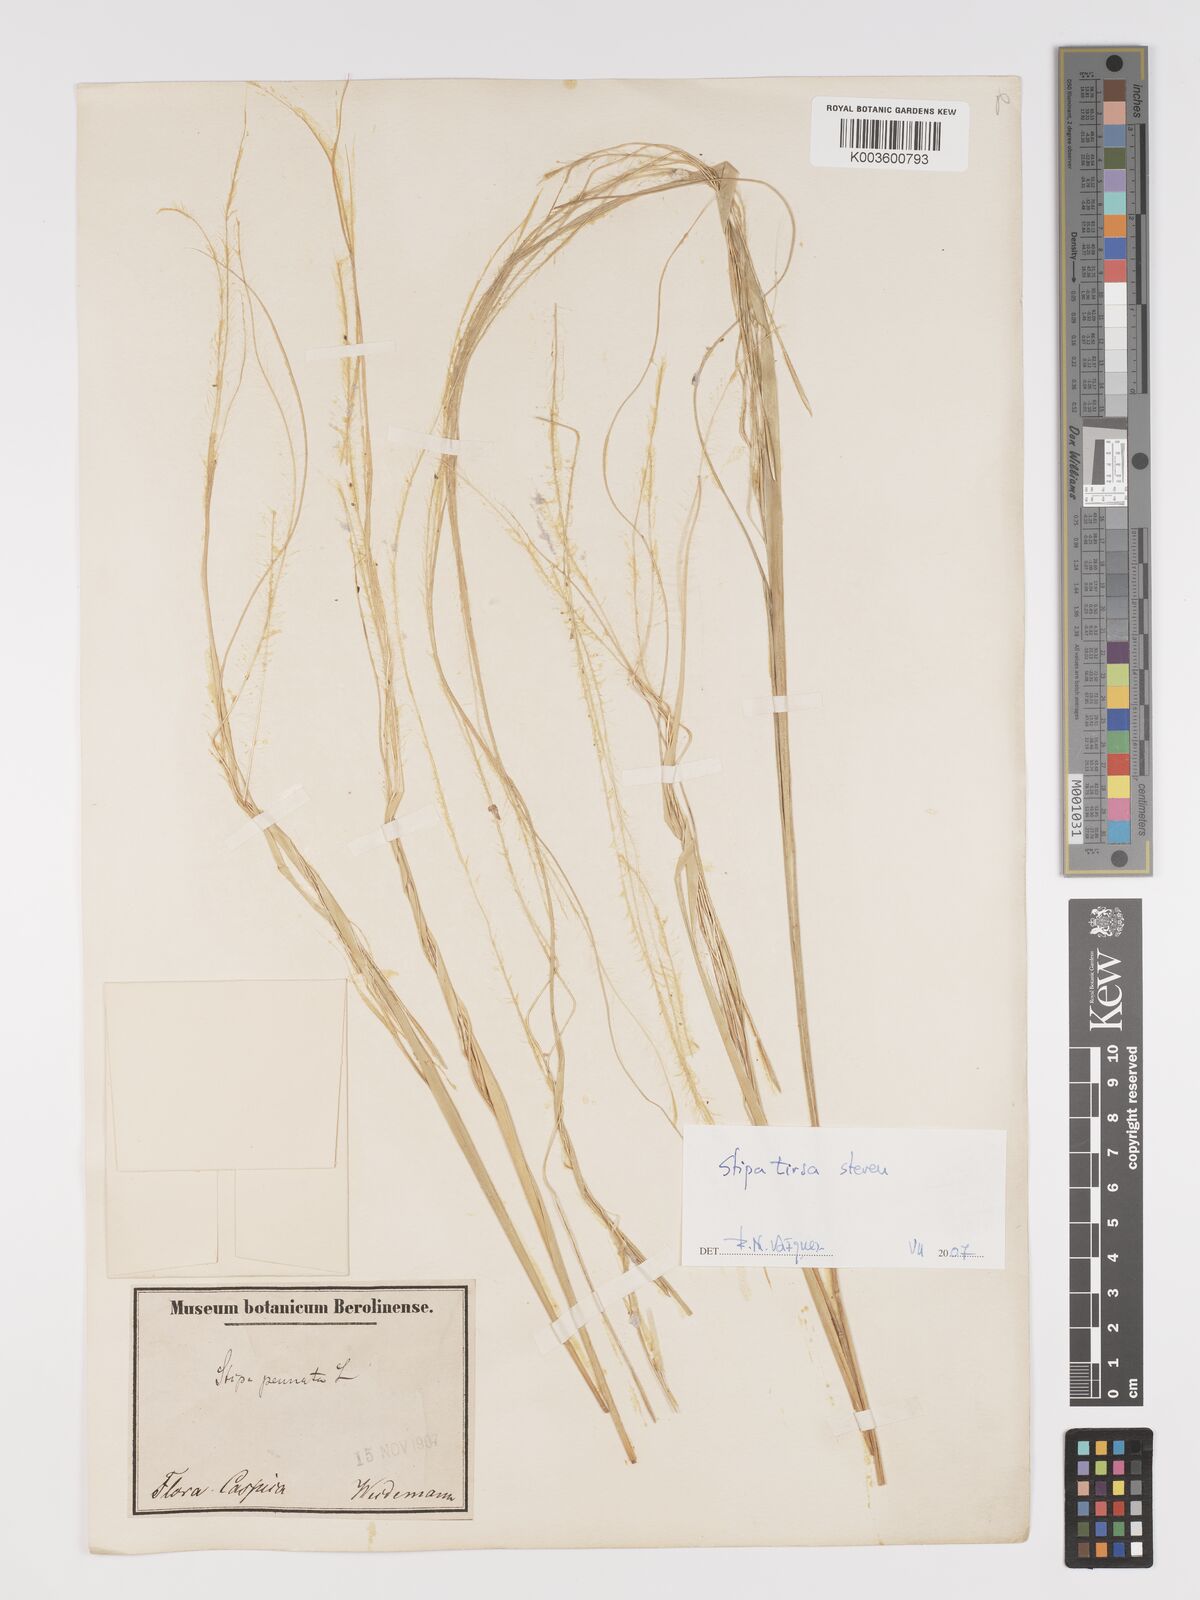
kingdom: Plantae
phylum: Tracheophyta
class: Liliopsida
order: Poales
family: Poaceae
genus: Stipa
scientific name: Stipa tirsa
